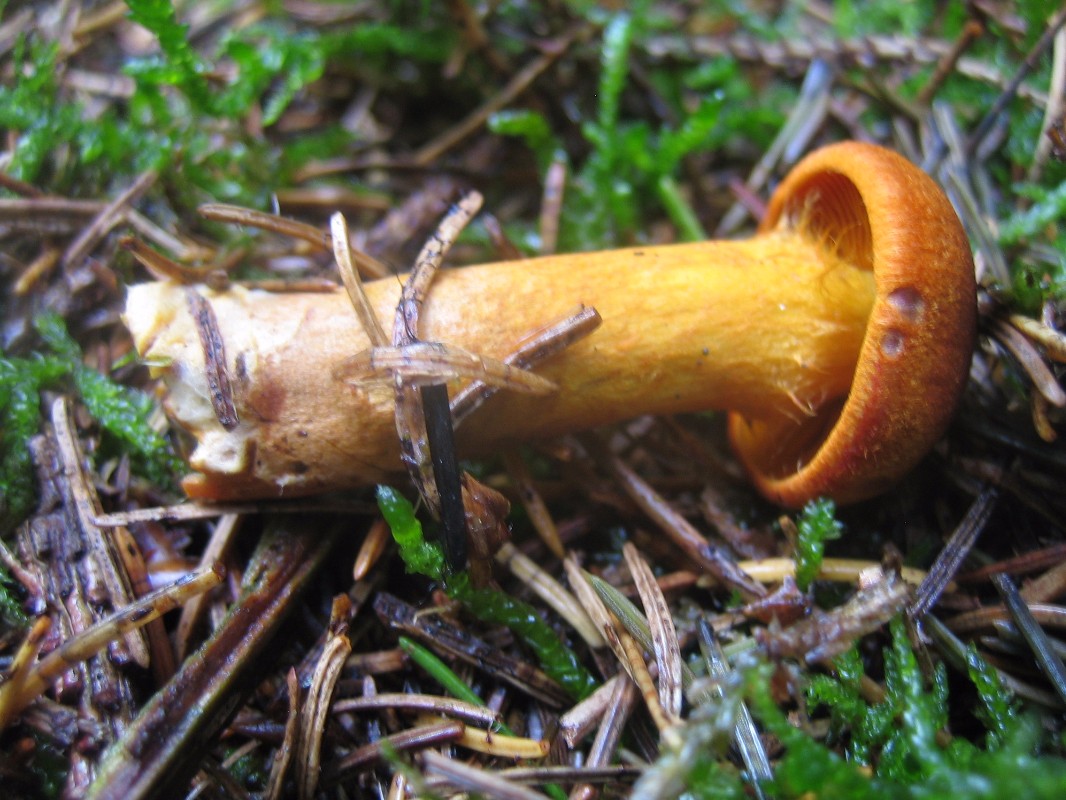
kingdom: Fungi
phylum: Basidiomycota
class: Agaricomycetes
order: Agaricales
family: Cortinariaceae
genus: Cortinarius
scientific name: Cortinarius cinnamomeus
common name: kanel-slørhat
